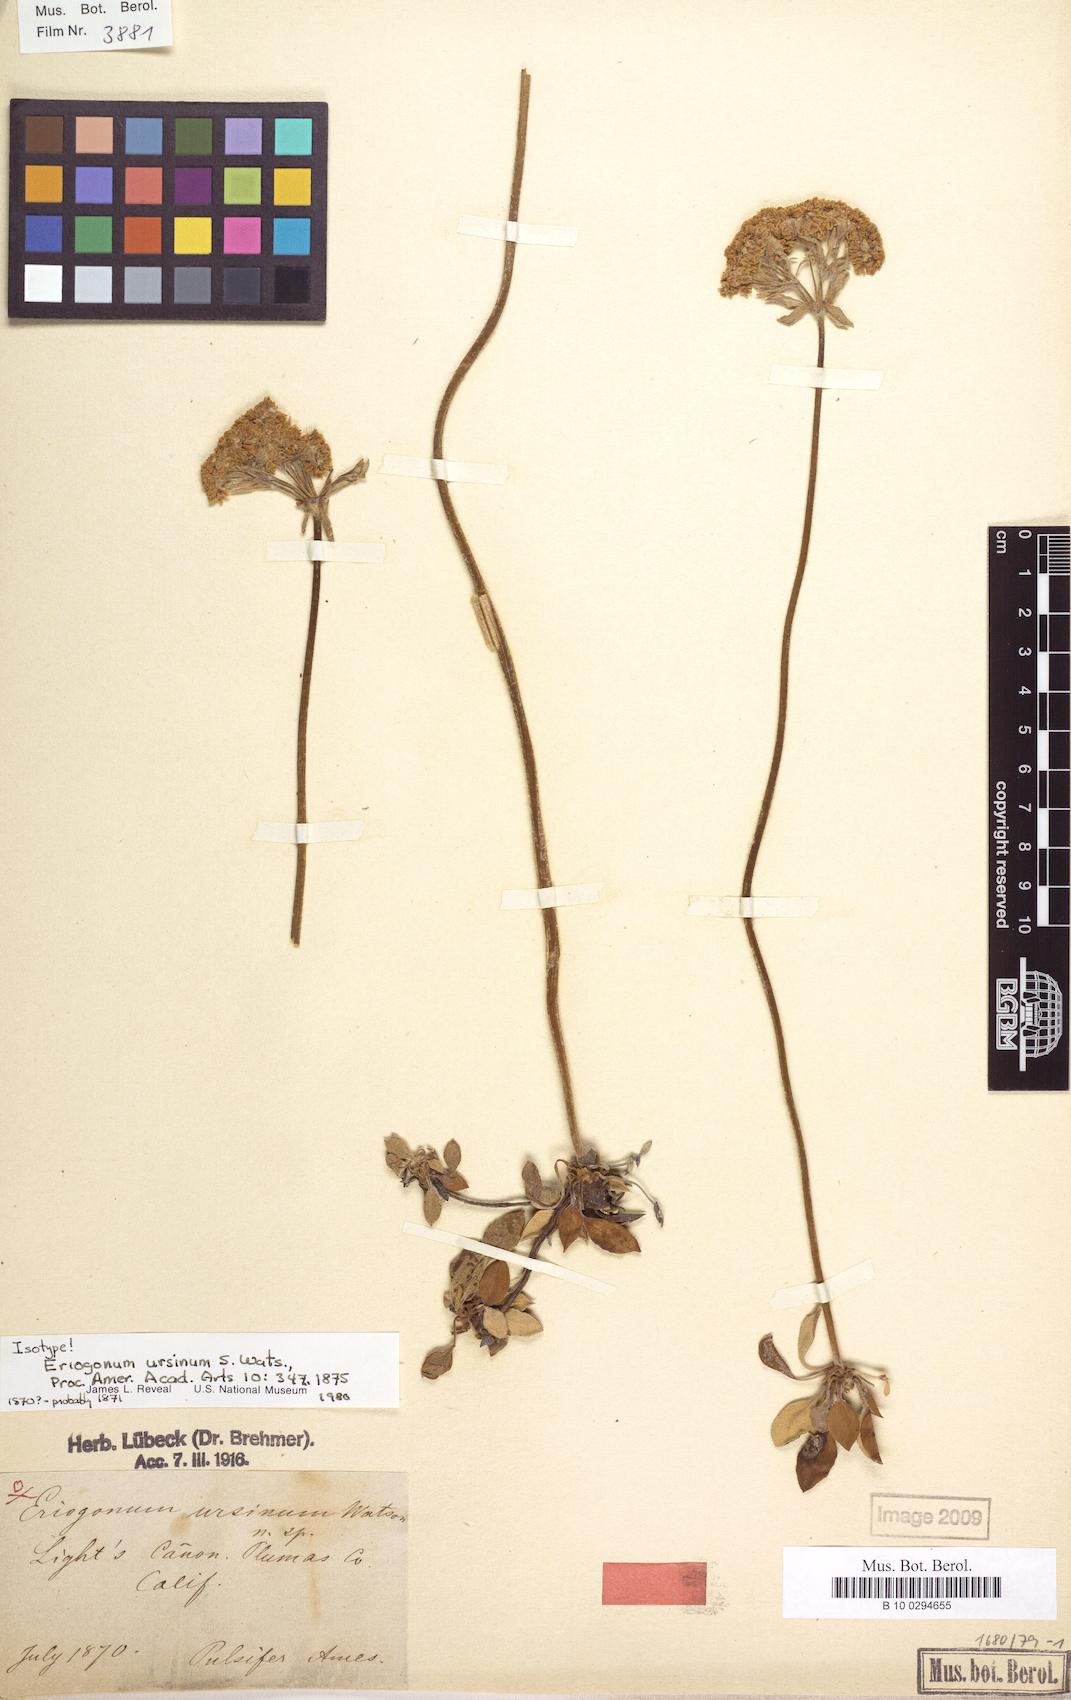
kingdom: Plantae
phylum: Tracheophyta
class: Magnoliopsida
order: Caryophyllales
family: Polygonaceae
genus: Eriogonum
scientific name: Eriogonum ursinum
